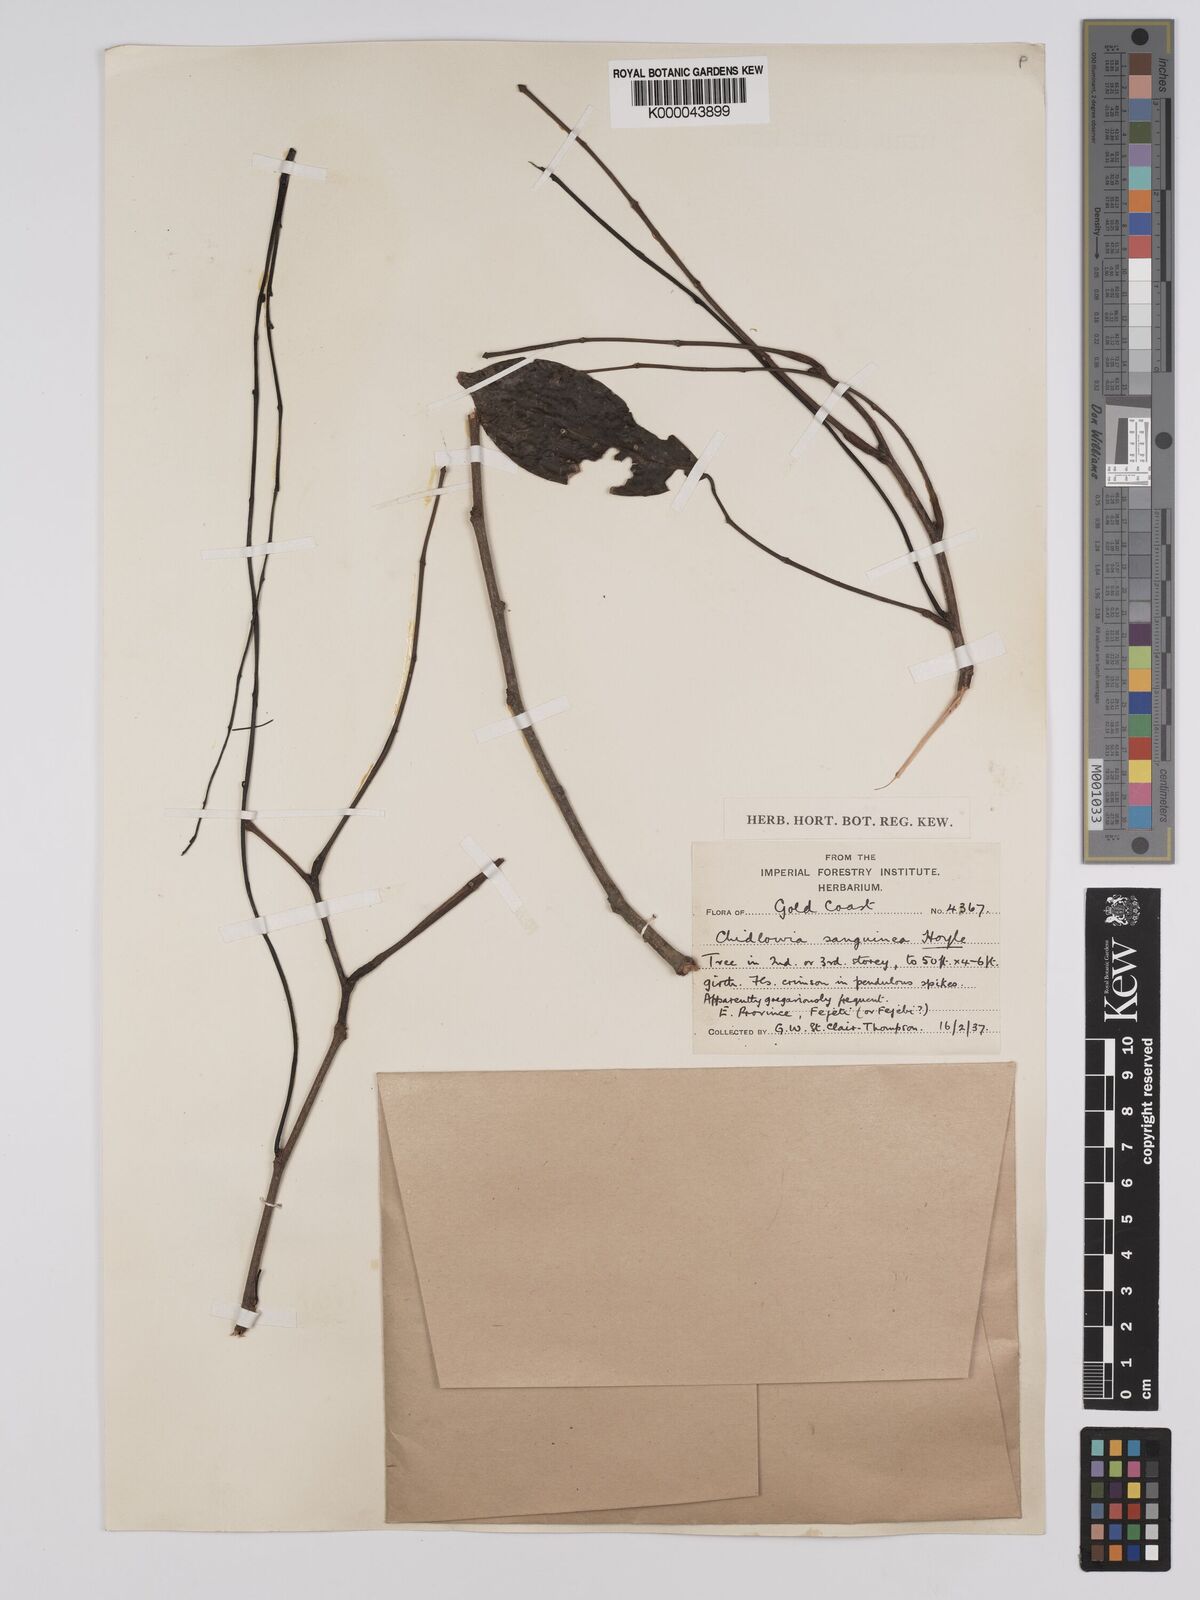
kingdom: Plantae
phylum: Tracheophyta
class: Magnoliopsida
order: Fabales
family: Fabaceae
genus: Chidlowia
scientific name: Chidlowia sanguinea
